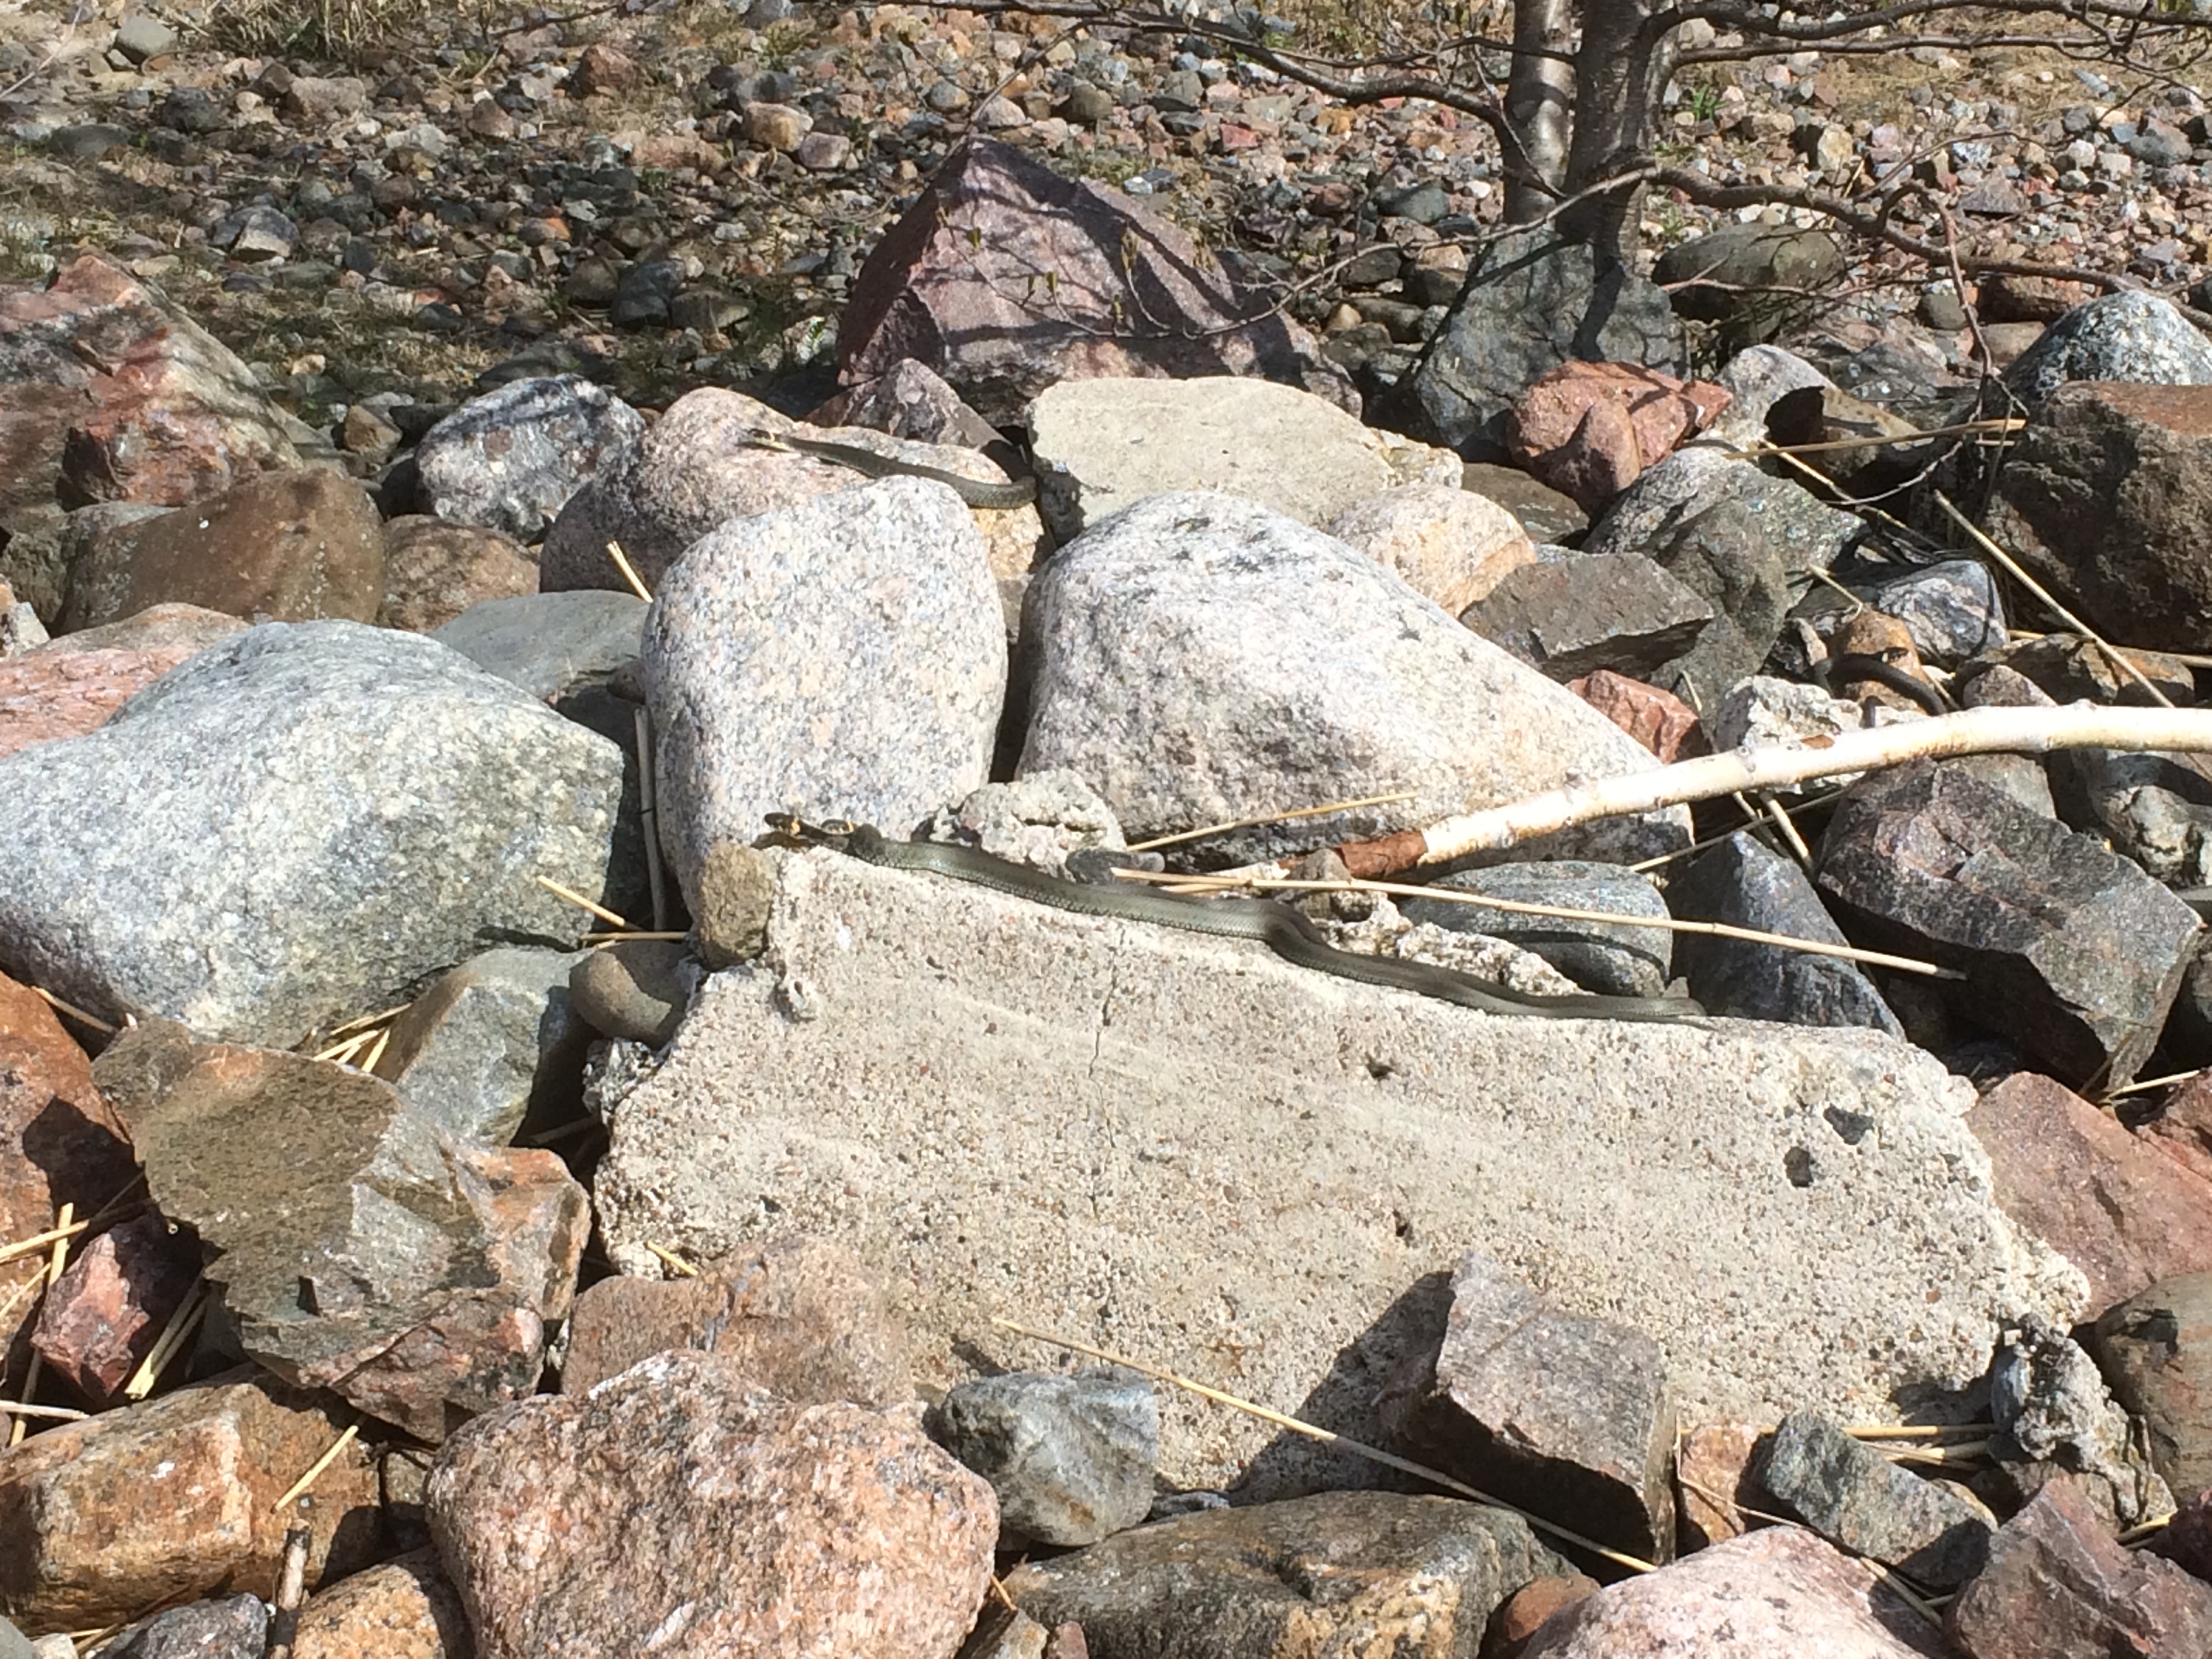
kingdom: Animalia
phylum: Chordata
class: Squamata
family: Colubridae
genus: Natrix
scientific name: Natrix natrix
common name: Grass snake
